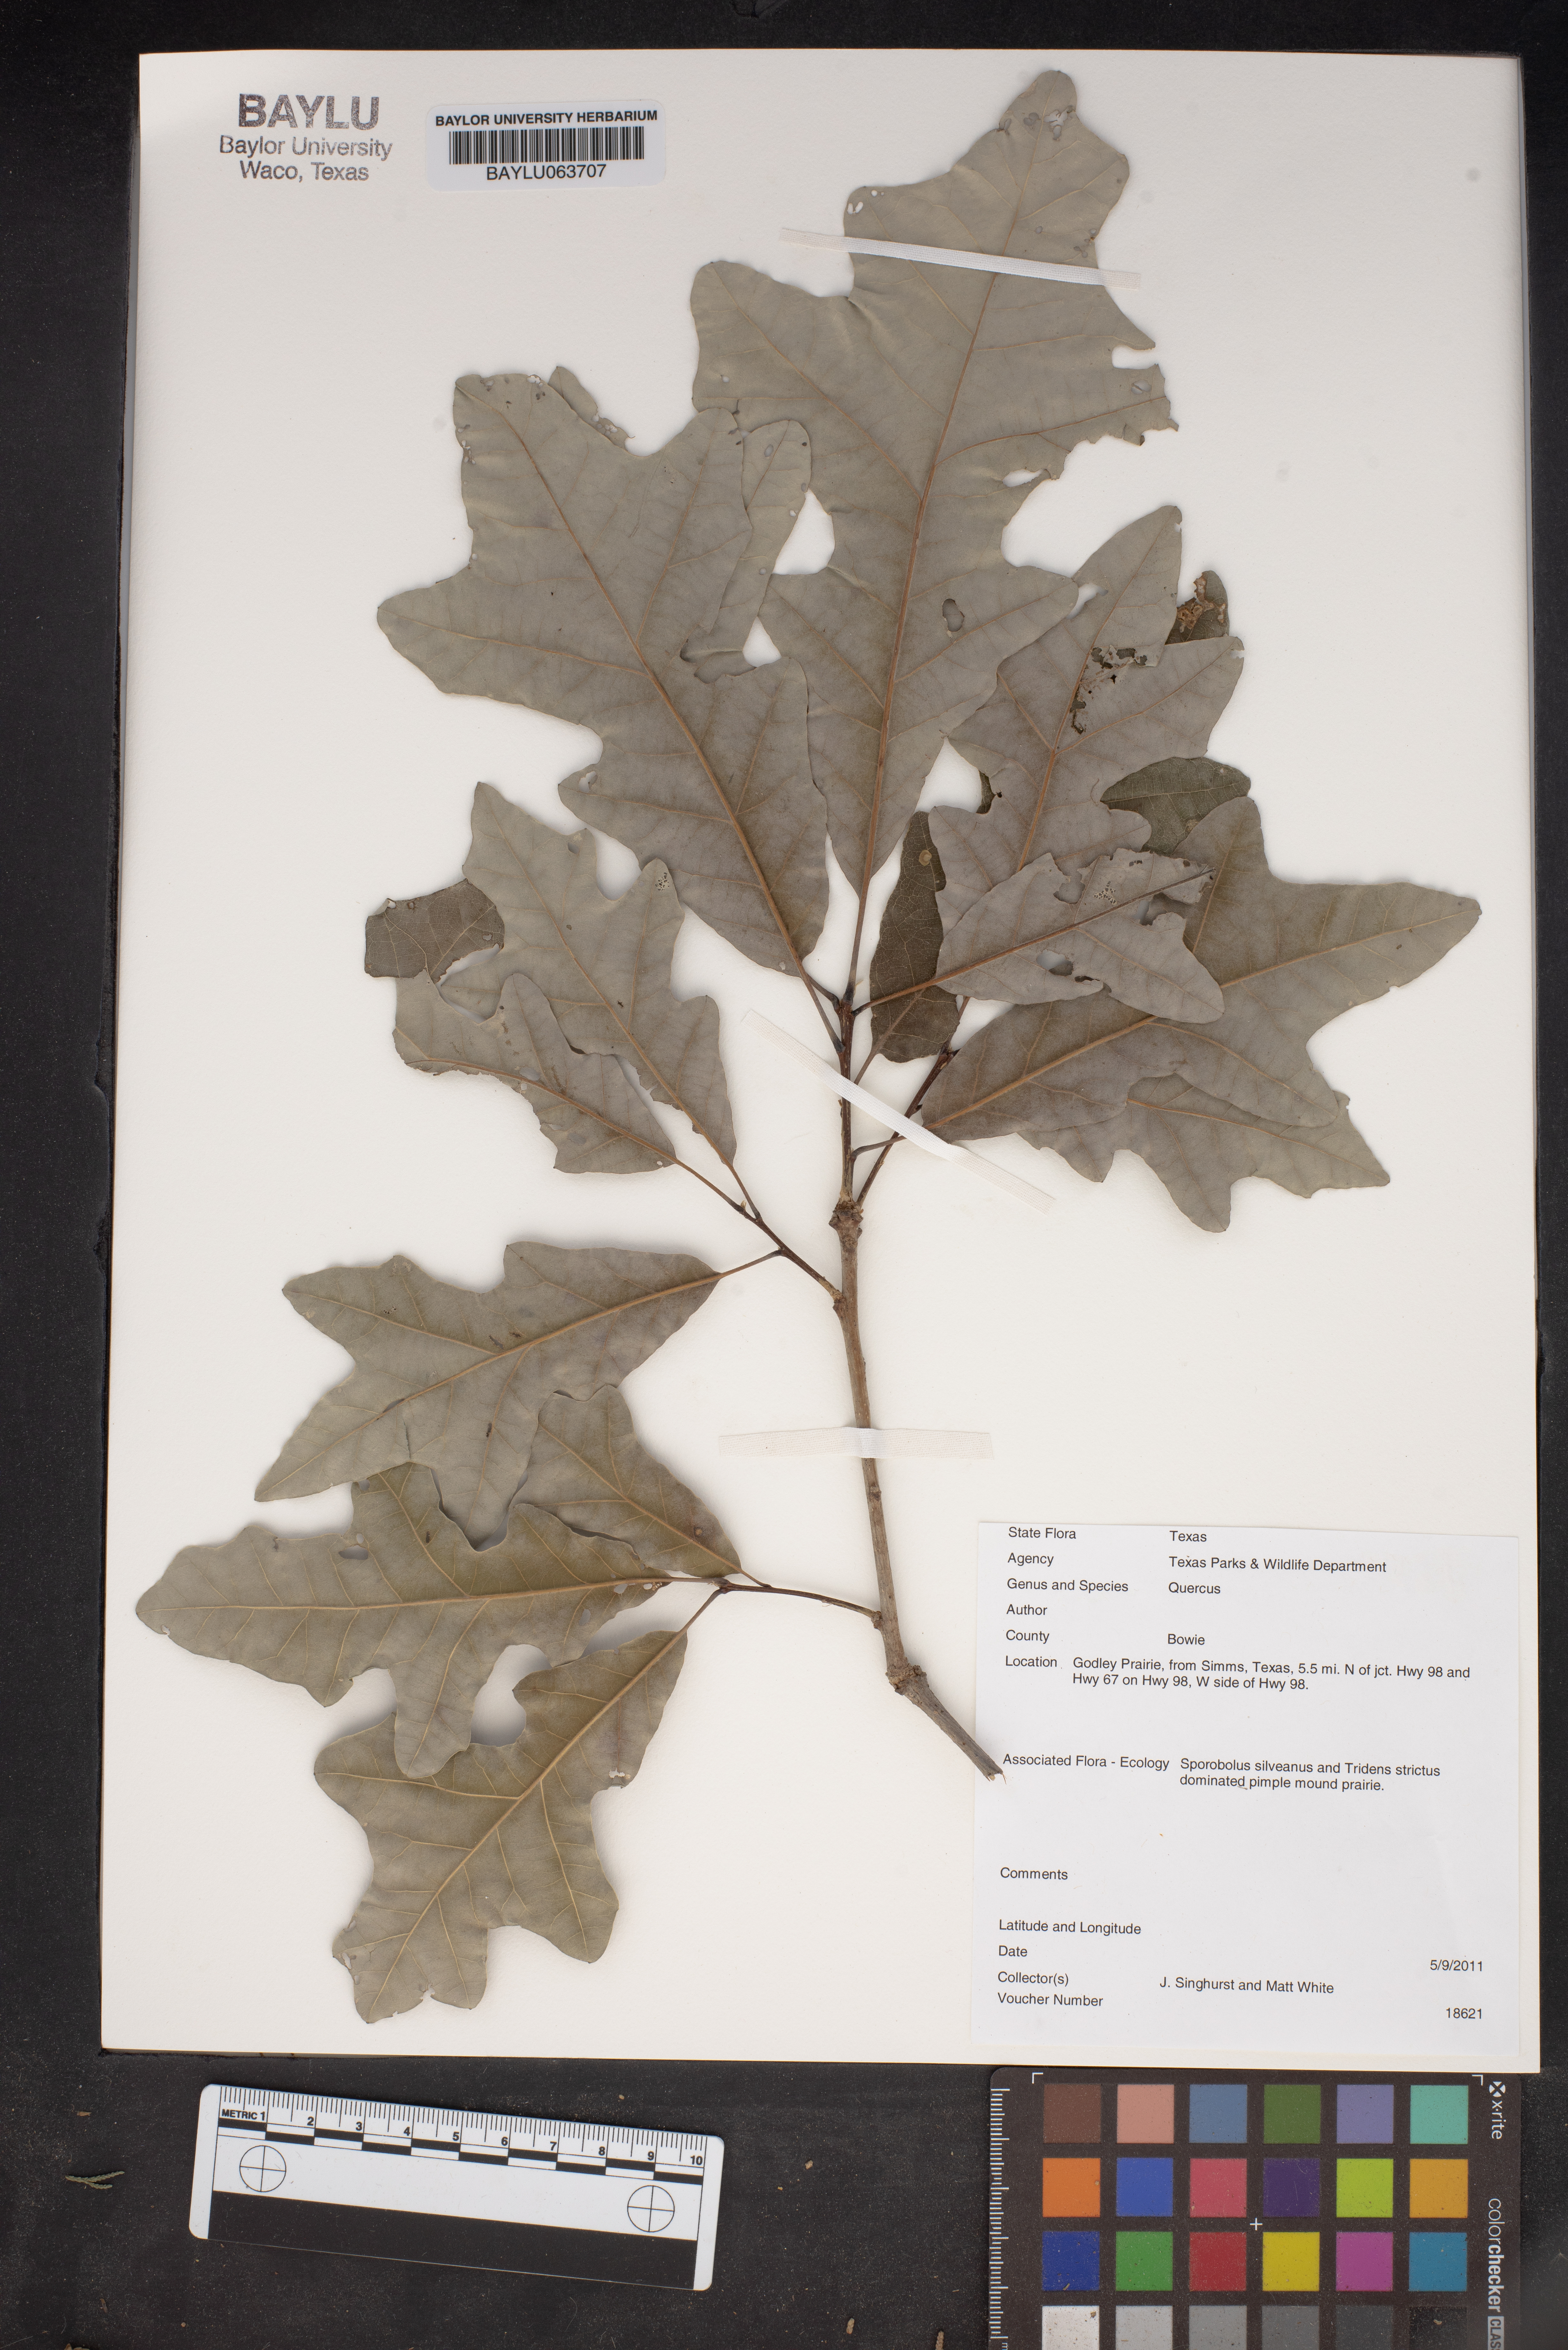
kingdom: Plantae
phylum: Tracheophyta
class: Magnoliopsida
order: Fagales
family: Fagaceae
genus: Quercus
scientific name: Quercus
